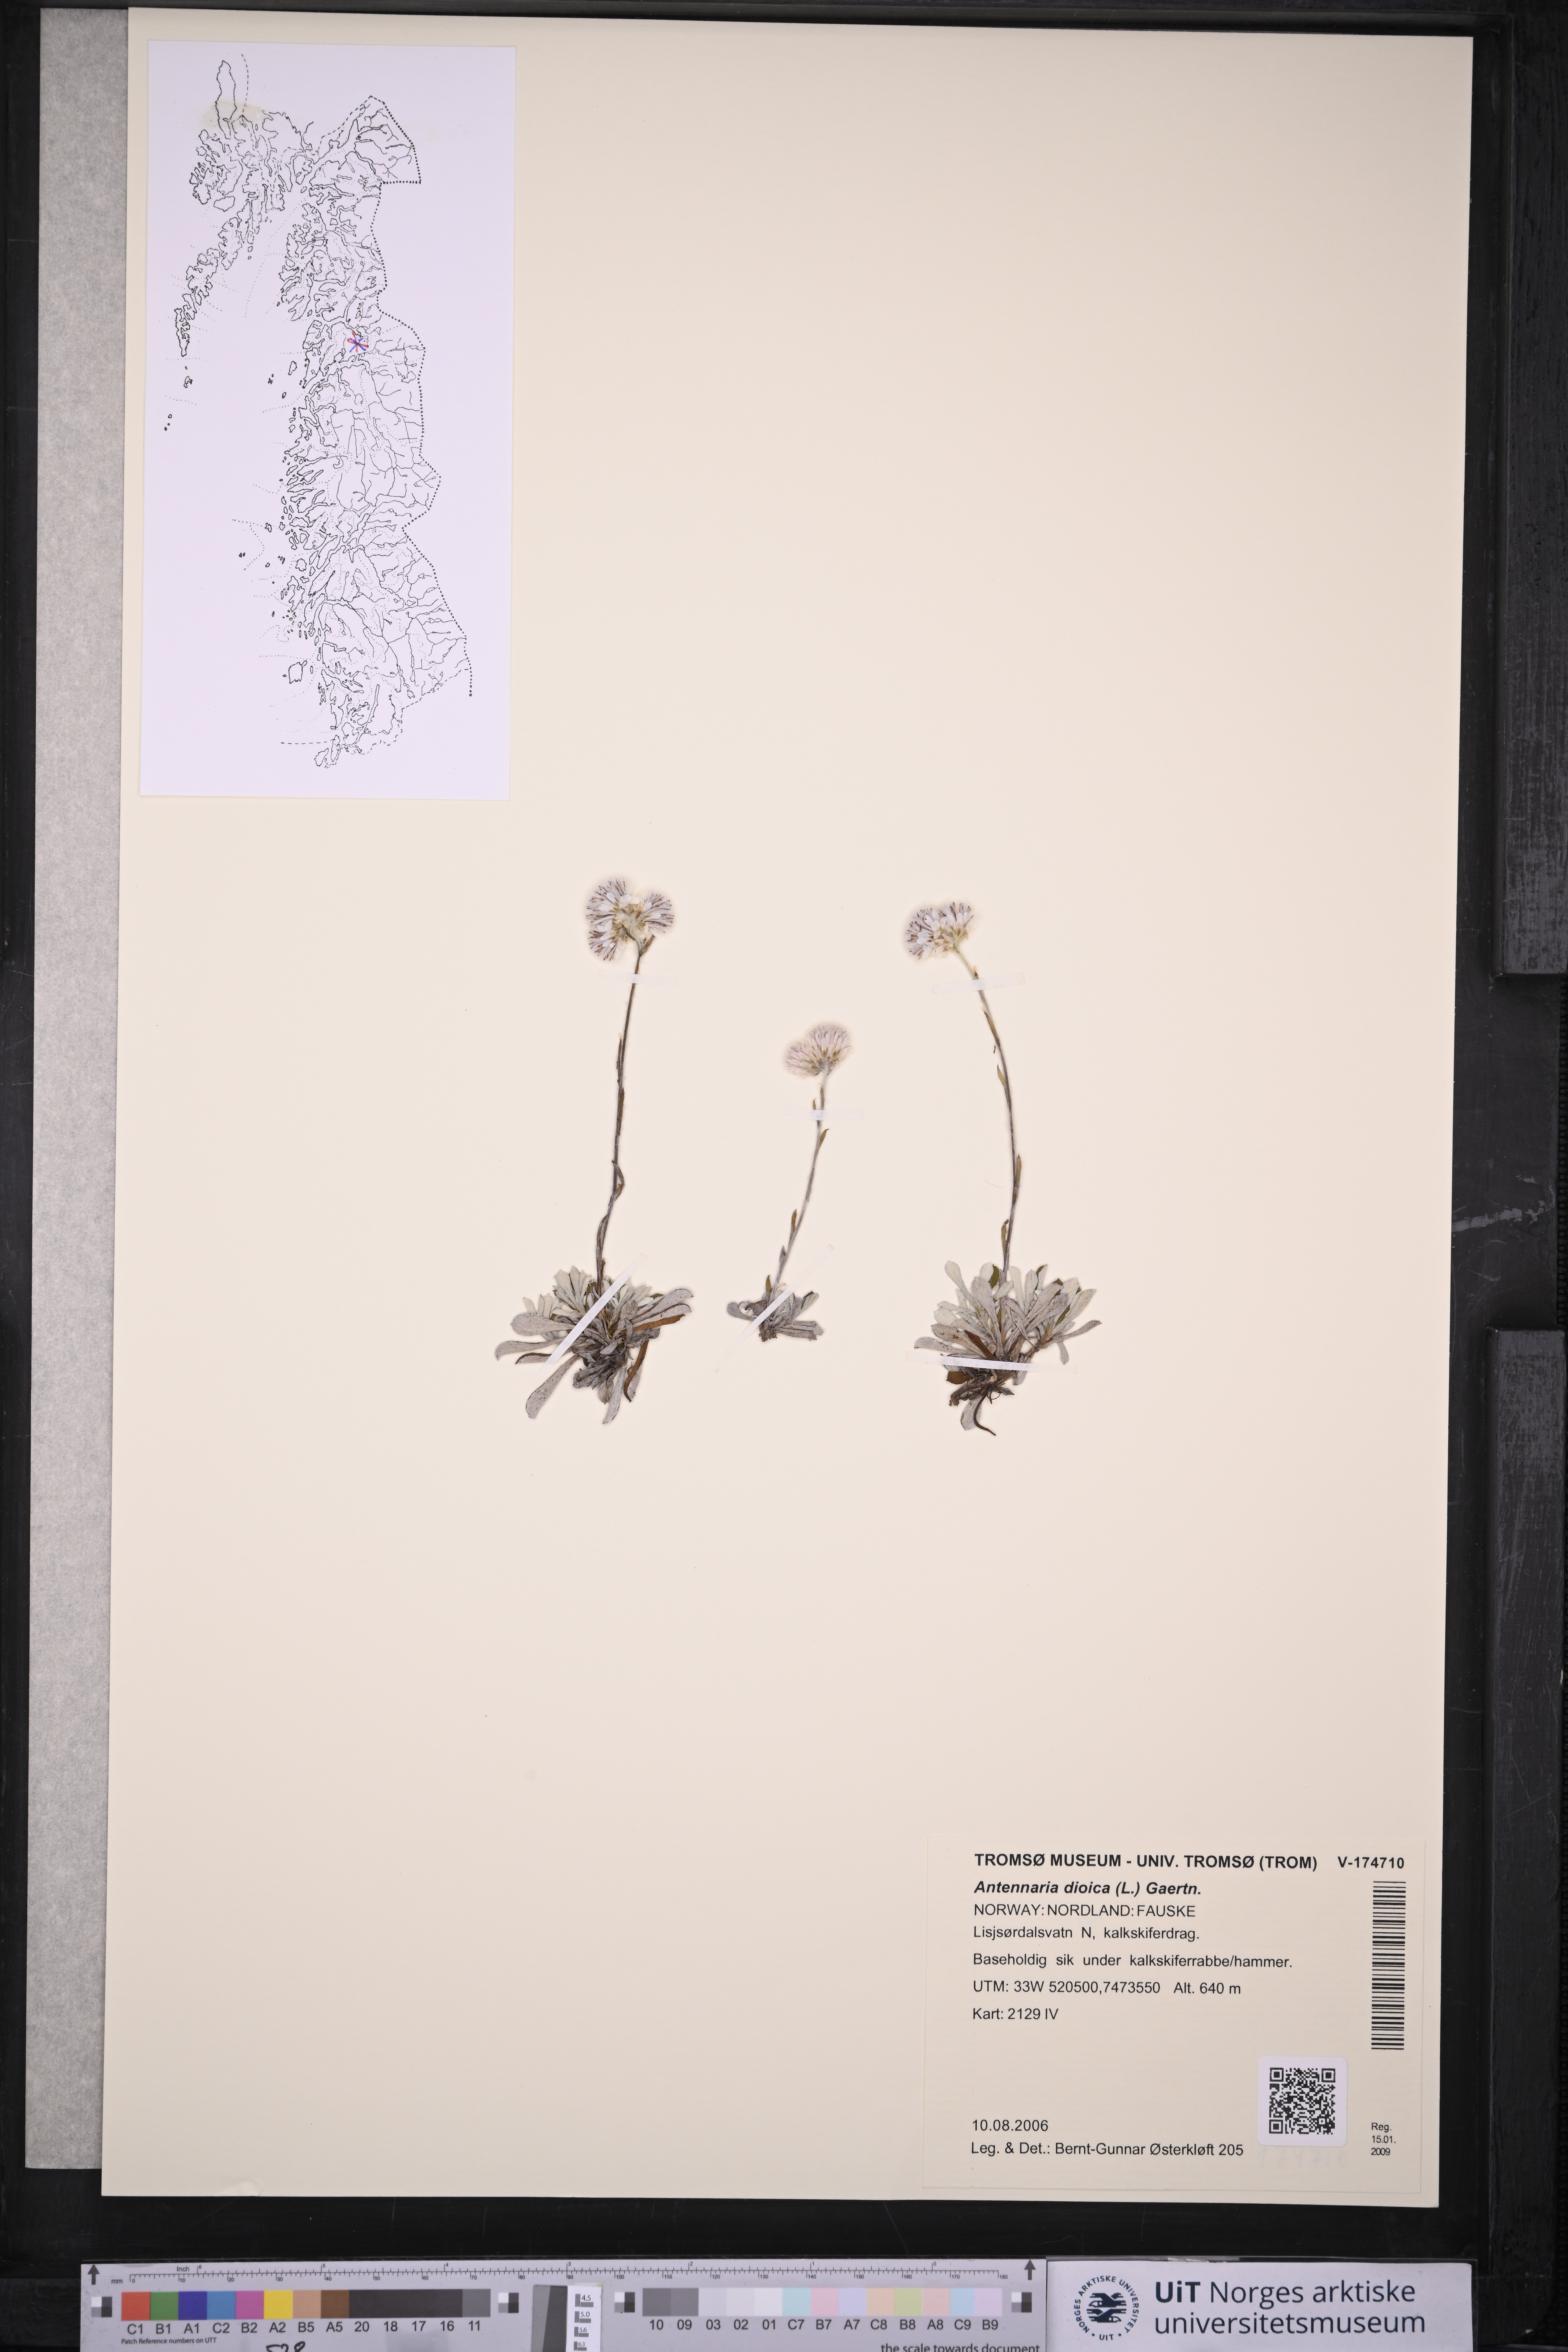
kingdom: Plantae
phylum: Tracheophyta
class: Magnoliopsida
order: Asterales
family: Asteraceae
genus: Antennaria
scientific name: Antennaria dioica
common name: Mountain everlasting
